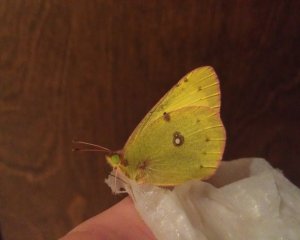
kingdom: Animalia
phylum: Arthropoda
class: Insecta
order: Lepidoptera
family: Pieridae
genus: Colias
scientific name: Colias philodice
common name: Clouded Sulphur
